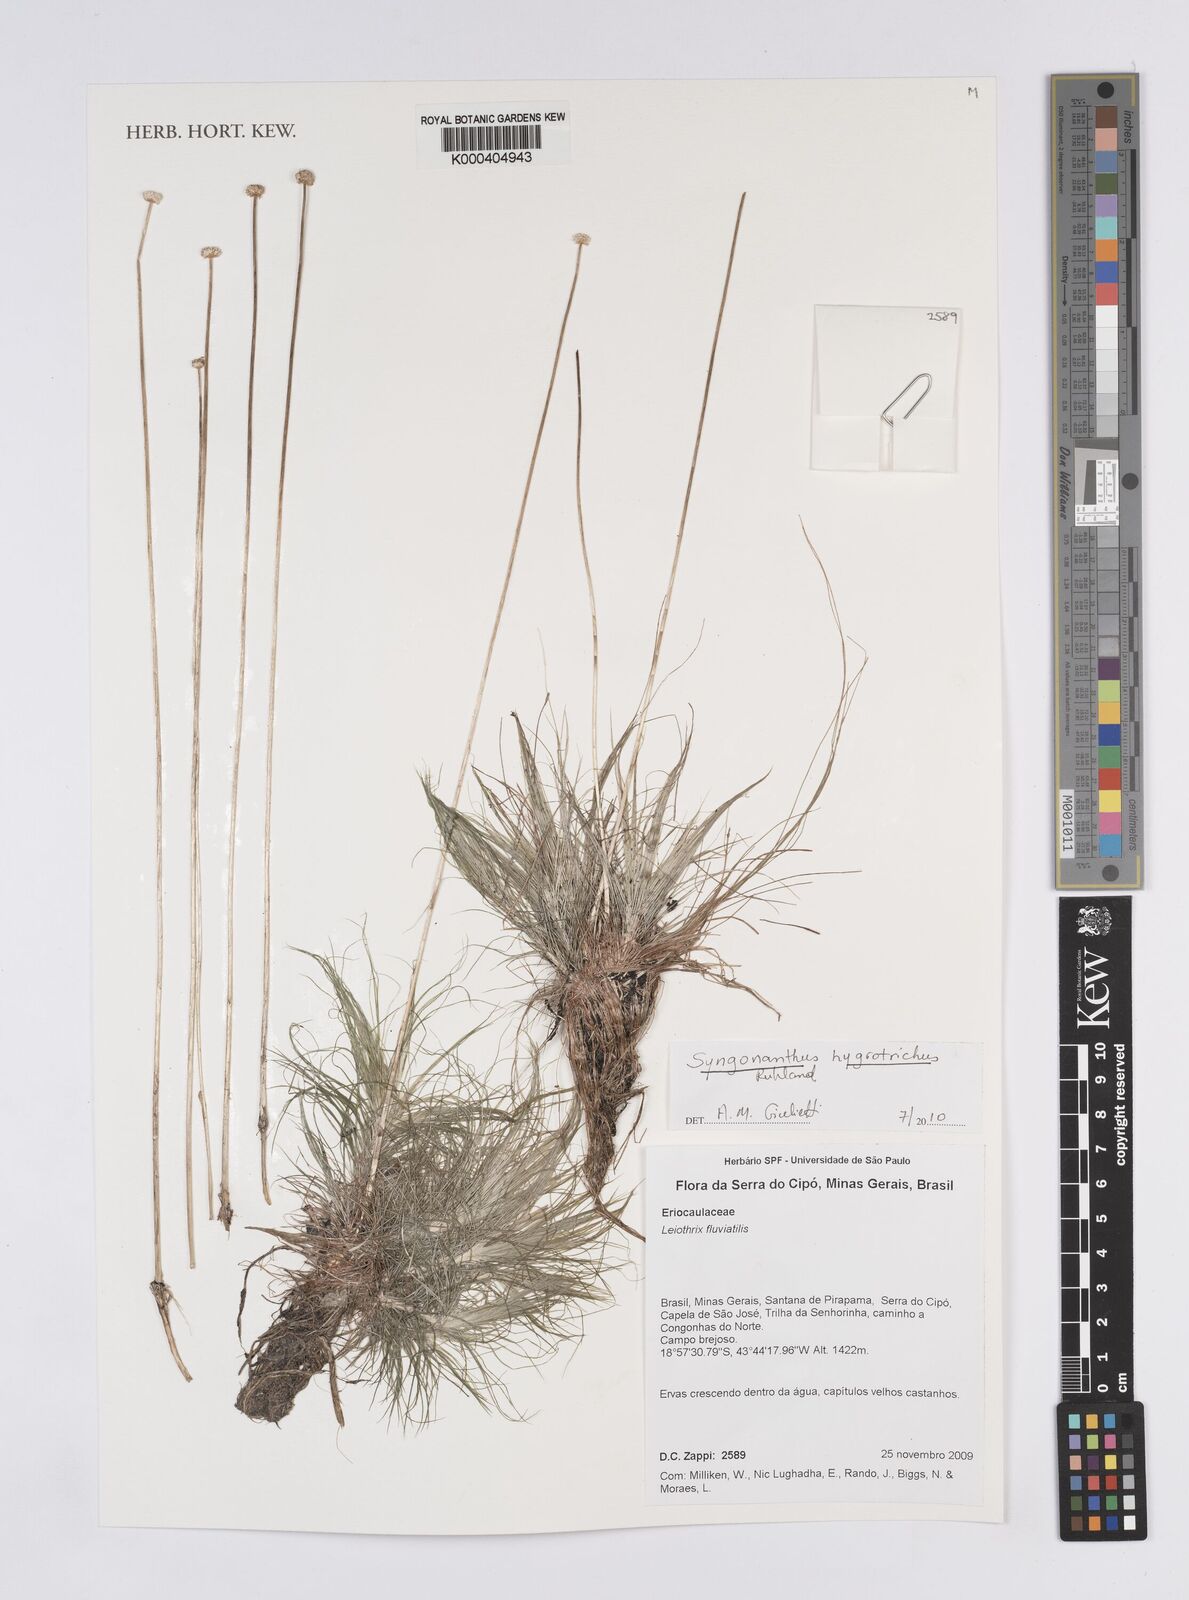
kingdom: Plantae
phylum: Tracheophyta
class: Liliopsida
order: Poales
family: Eriocaulaceae
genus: Leiothrix
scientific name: Leiothrix fluitans
